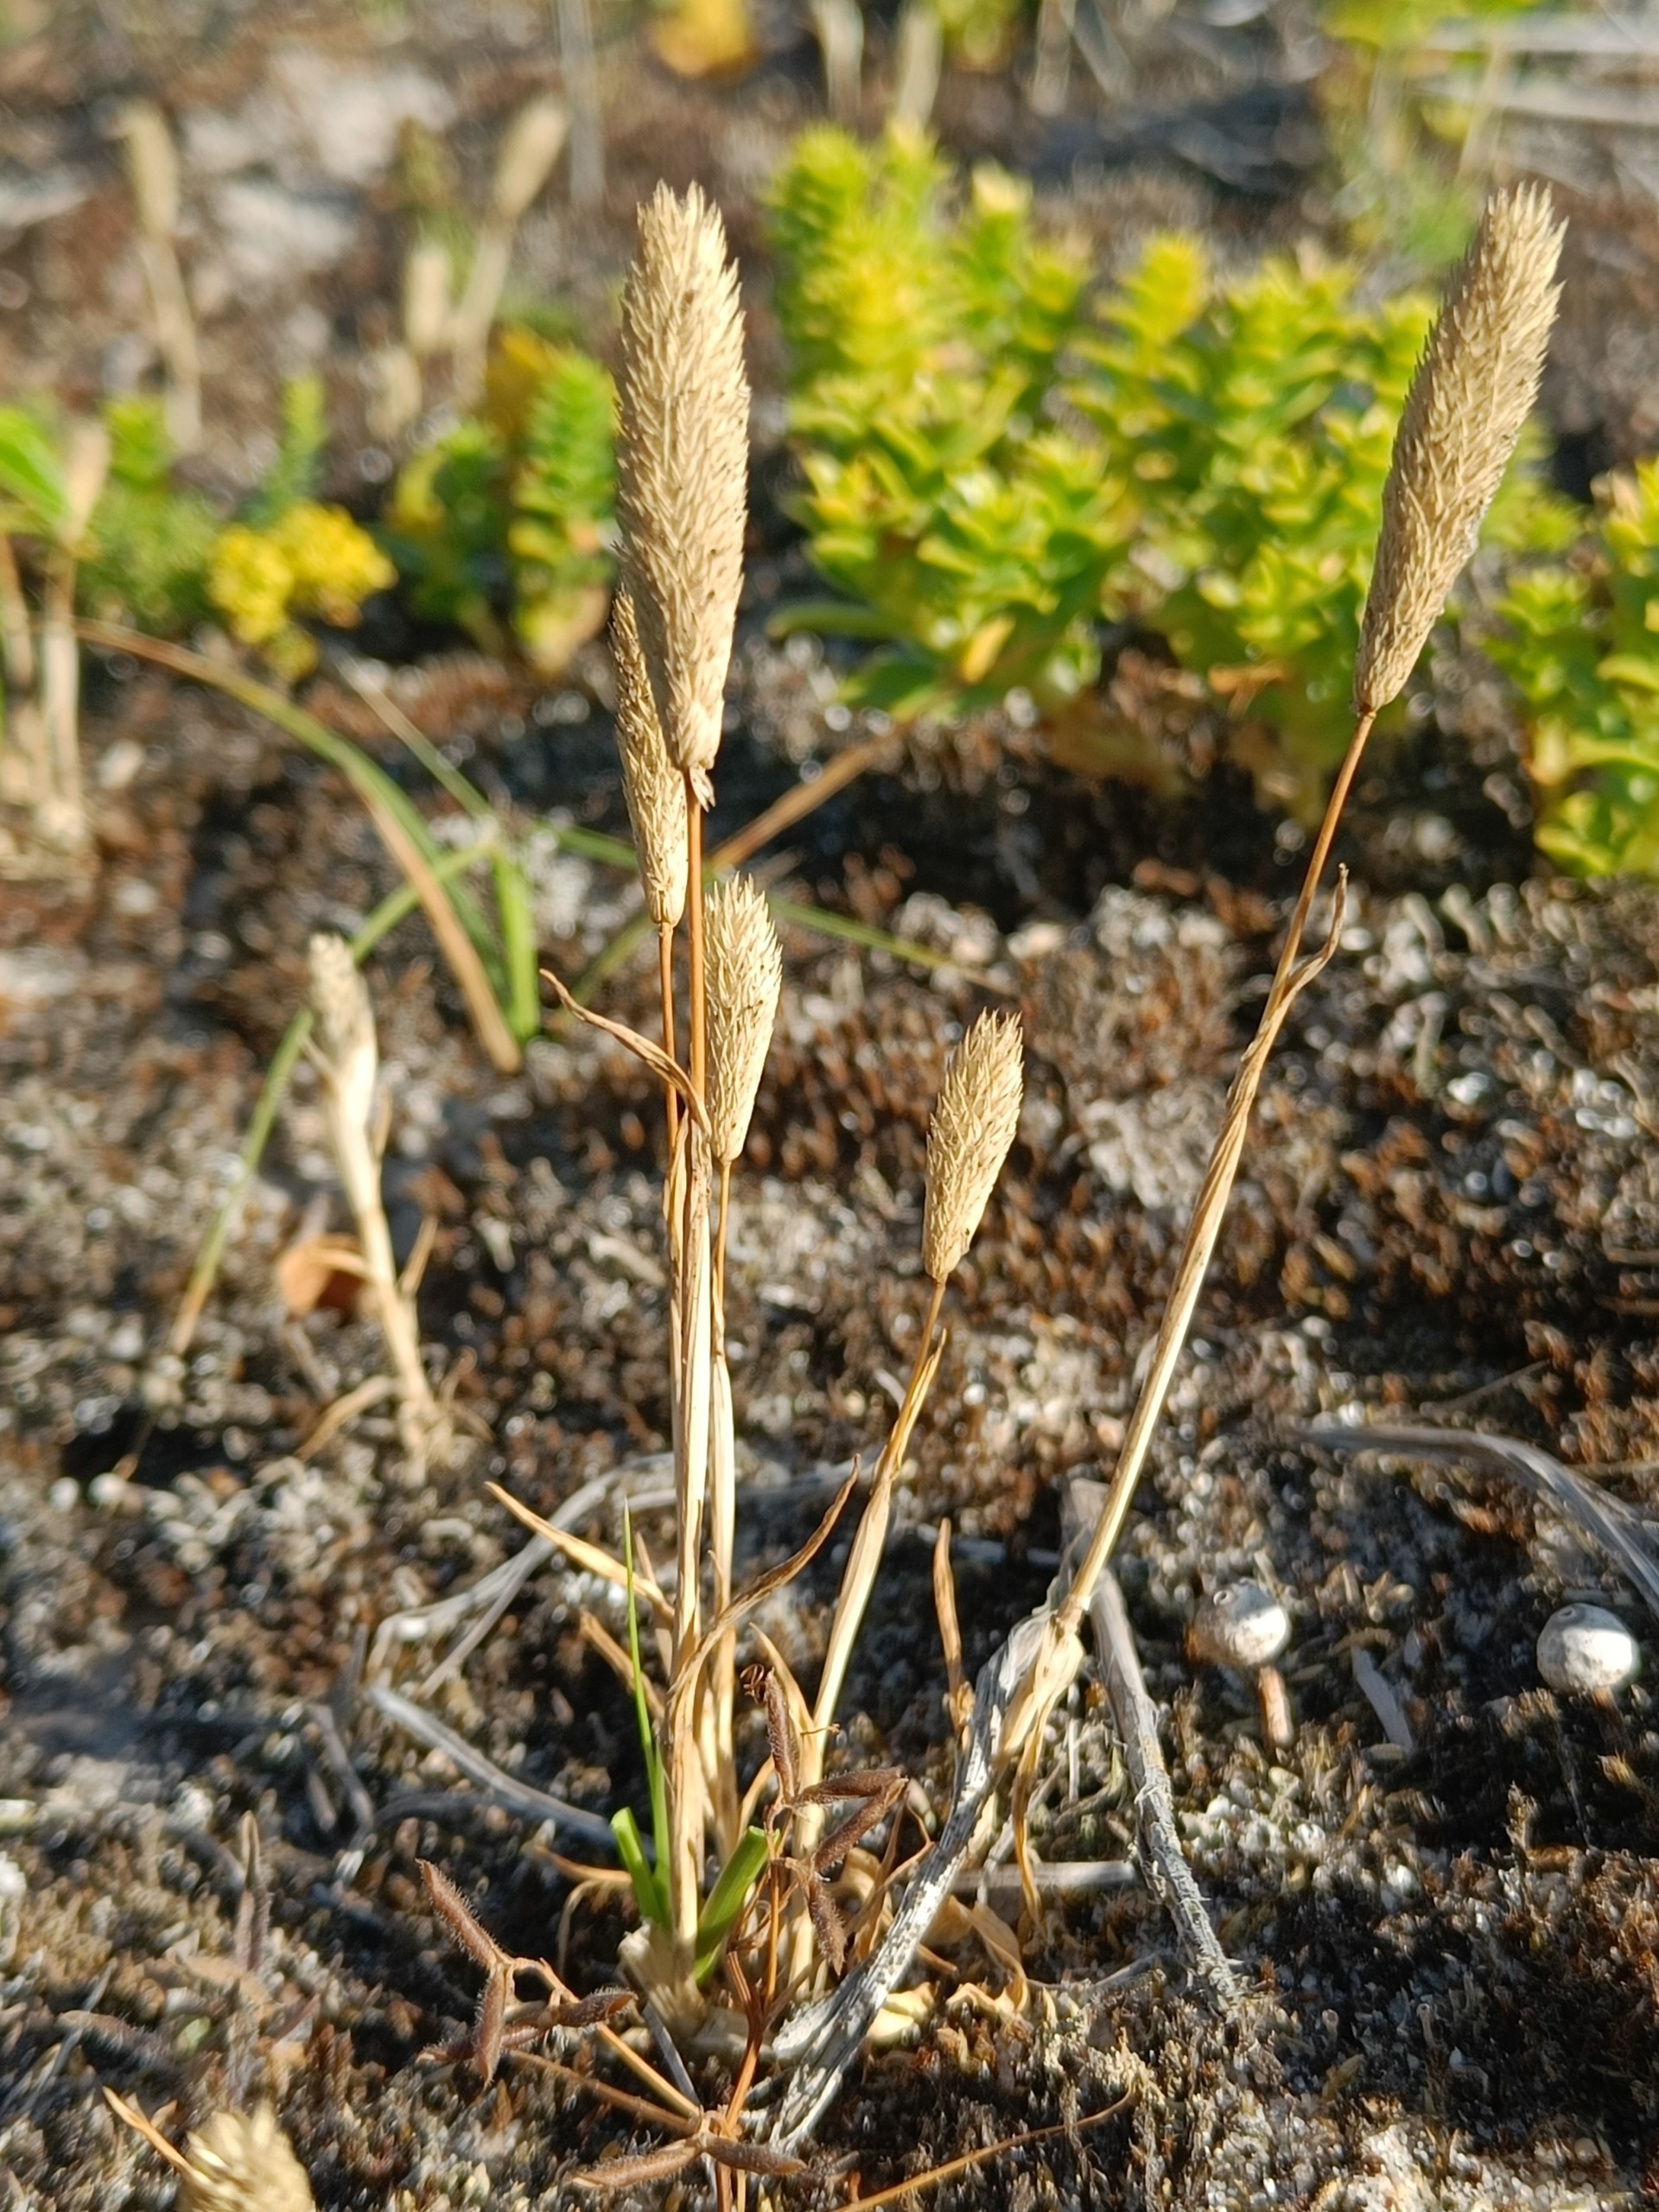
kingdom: Plantae
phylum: Tracheophyta
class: Liliopsida
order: Poales
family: Poaceae
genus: Phleum
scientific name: Phleum arenarium
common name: Sand-rottehale
